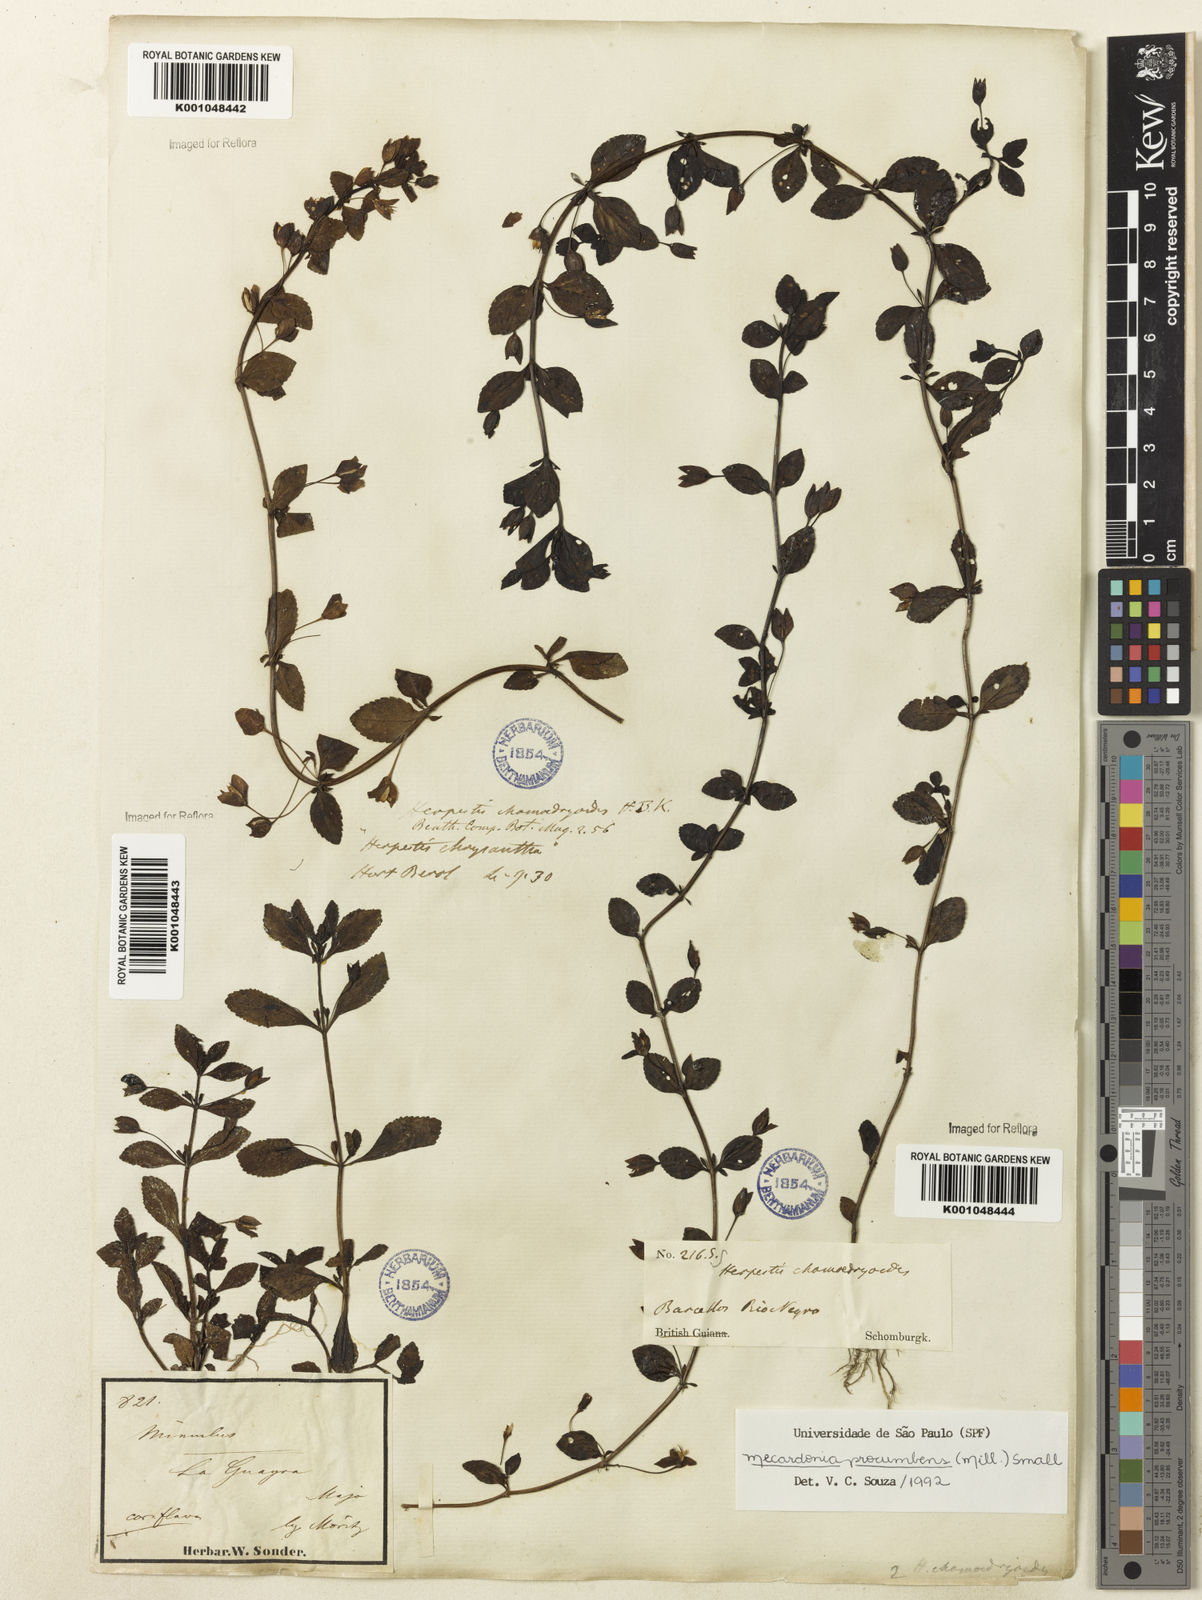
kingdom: Plantae
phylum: Tracheophyta
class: Magnoliopsida
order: Lamiales
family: Plantaginaceae
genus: Mecardonia
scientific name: Mecardonia procumbens
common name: Baby jump-up
